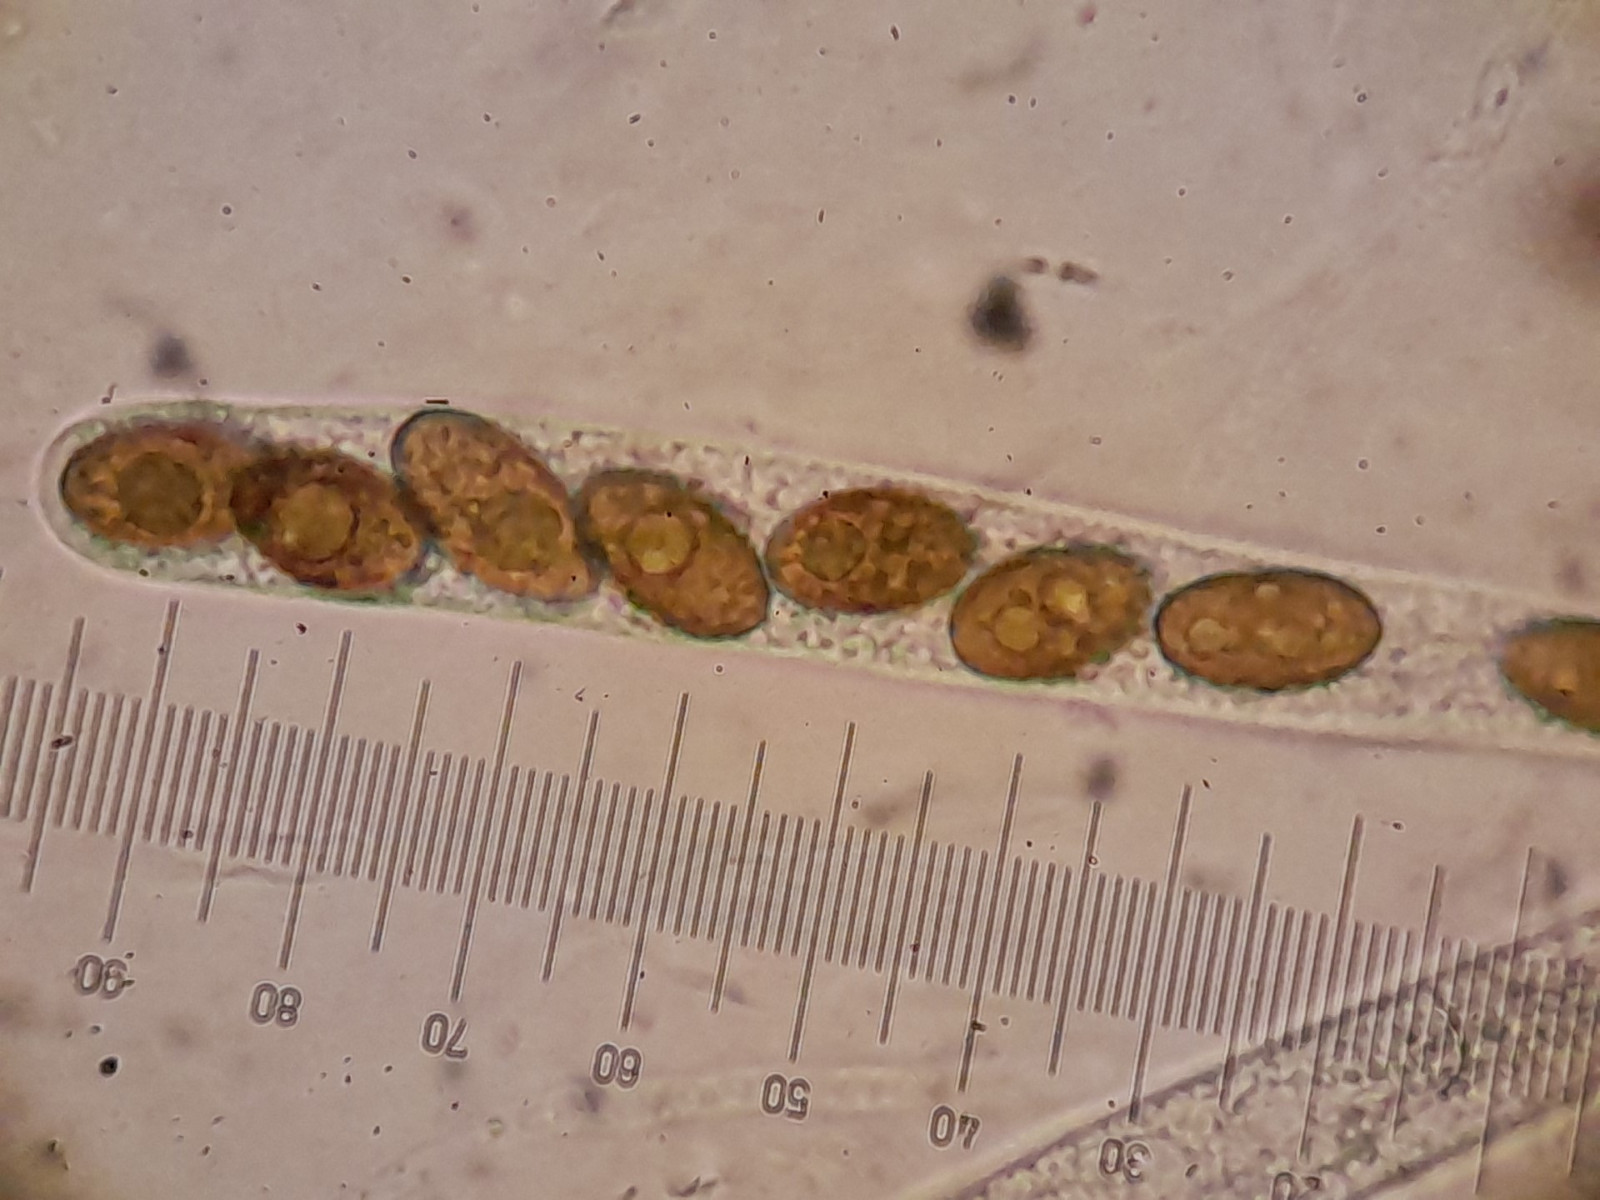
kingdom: Fungi
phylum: Ascomycota
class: Sordariomycetes
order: Amphisphaeriales
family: Amphisphaeriaceae
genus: Amphisphaerella
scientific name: Amphisphaerella xylostei
